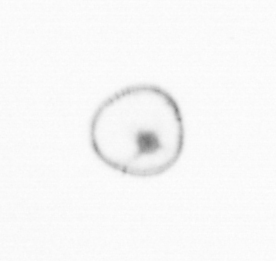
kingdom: Chromista
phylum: Myzozoa
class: Dinophyceae
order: Noctilucales
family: Noctilucaceae
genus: Noctiluca
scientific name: Noctiluca scintillans
